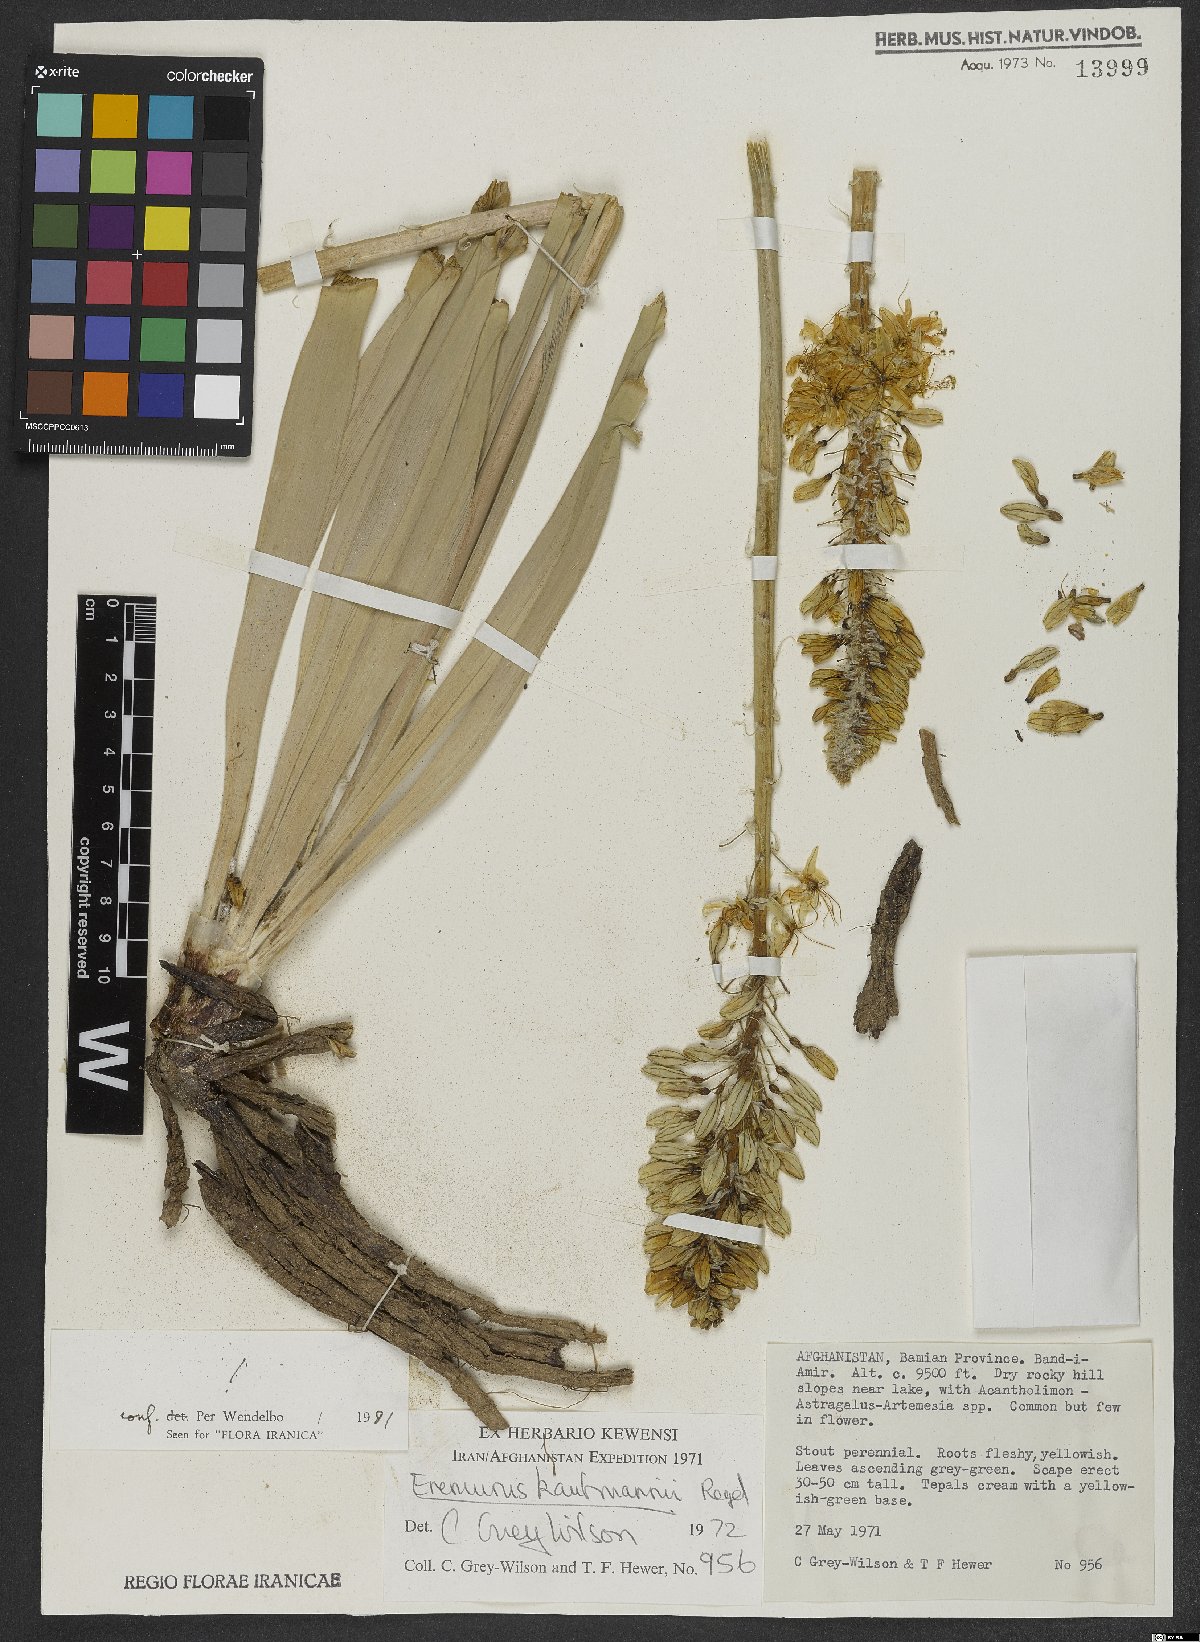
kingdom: Plantae
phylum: Tracheophyta
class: Liliopsida
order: Asparagales
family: Asphodelaceae
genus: Eremurus
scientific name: Eremurus kaufmannii
